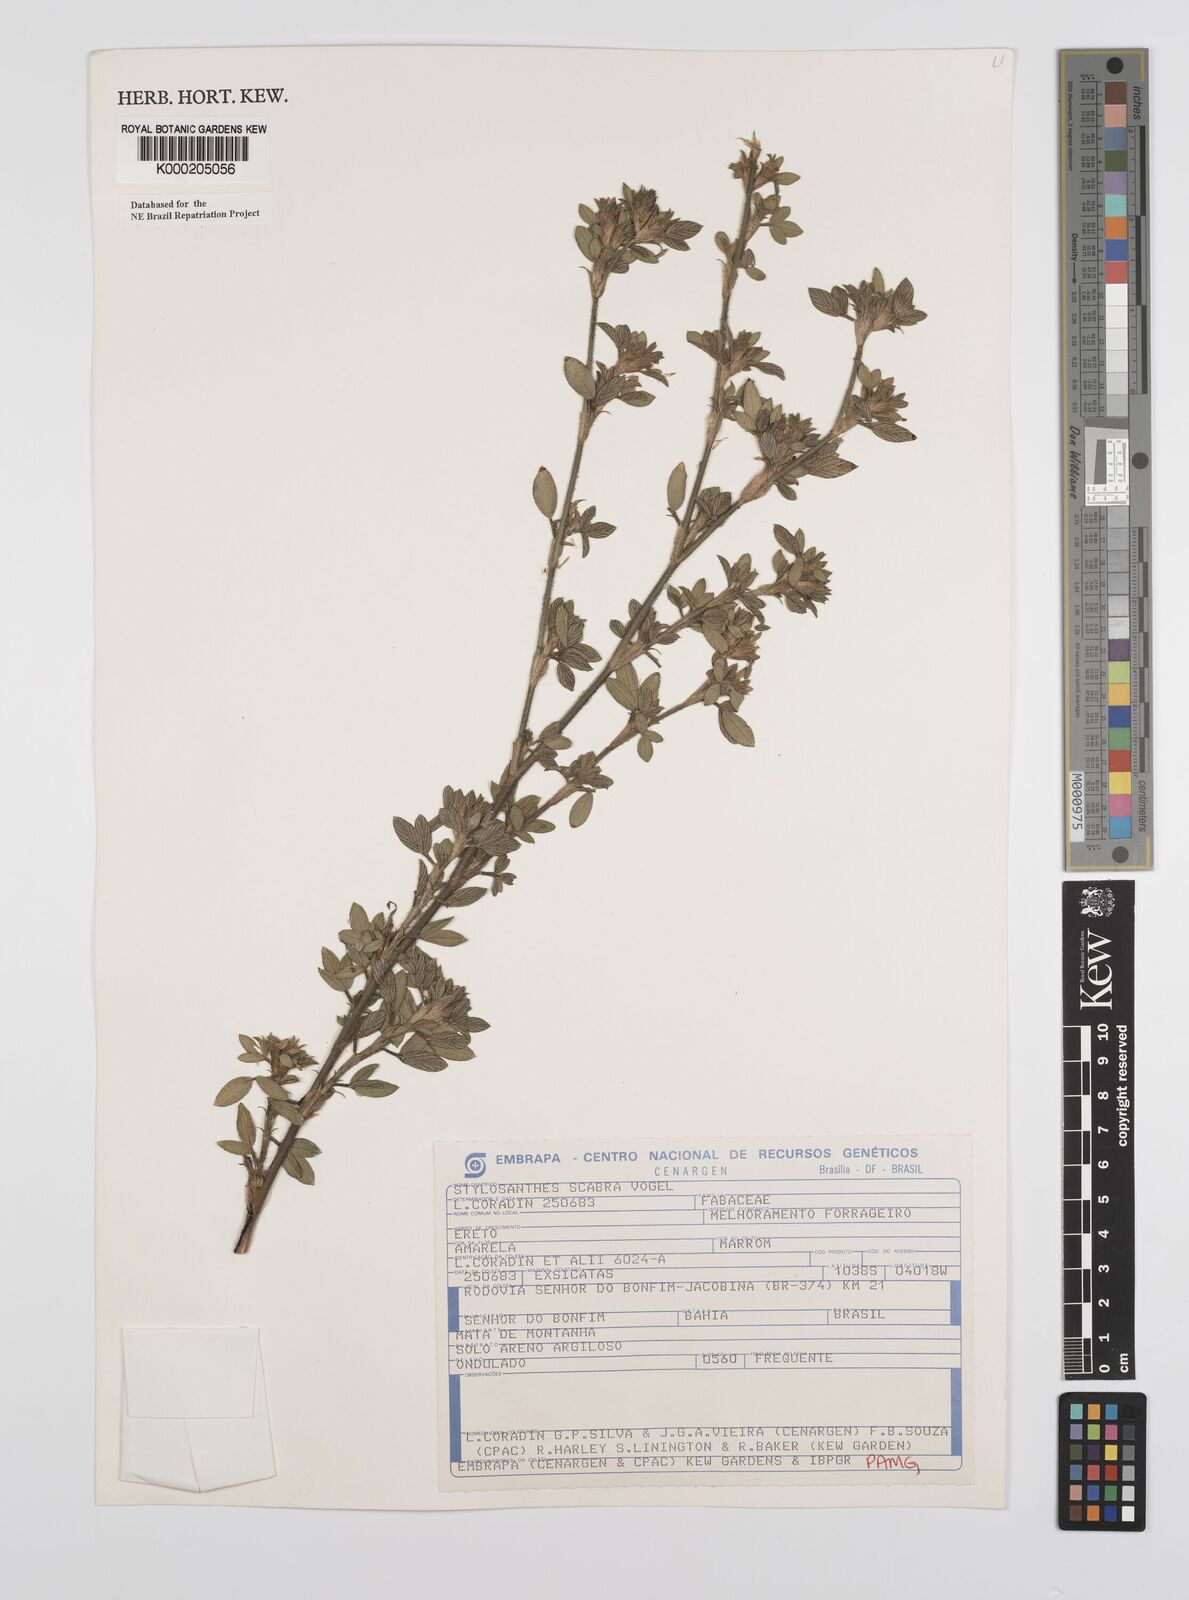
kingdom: Plantae
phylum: Tracheophyta
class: Magnoliopsida
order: Fabales
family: Fabaceae
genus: Stylosanthes
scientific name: Stylosanthes scabra
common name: Pencilflower
